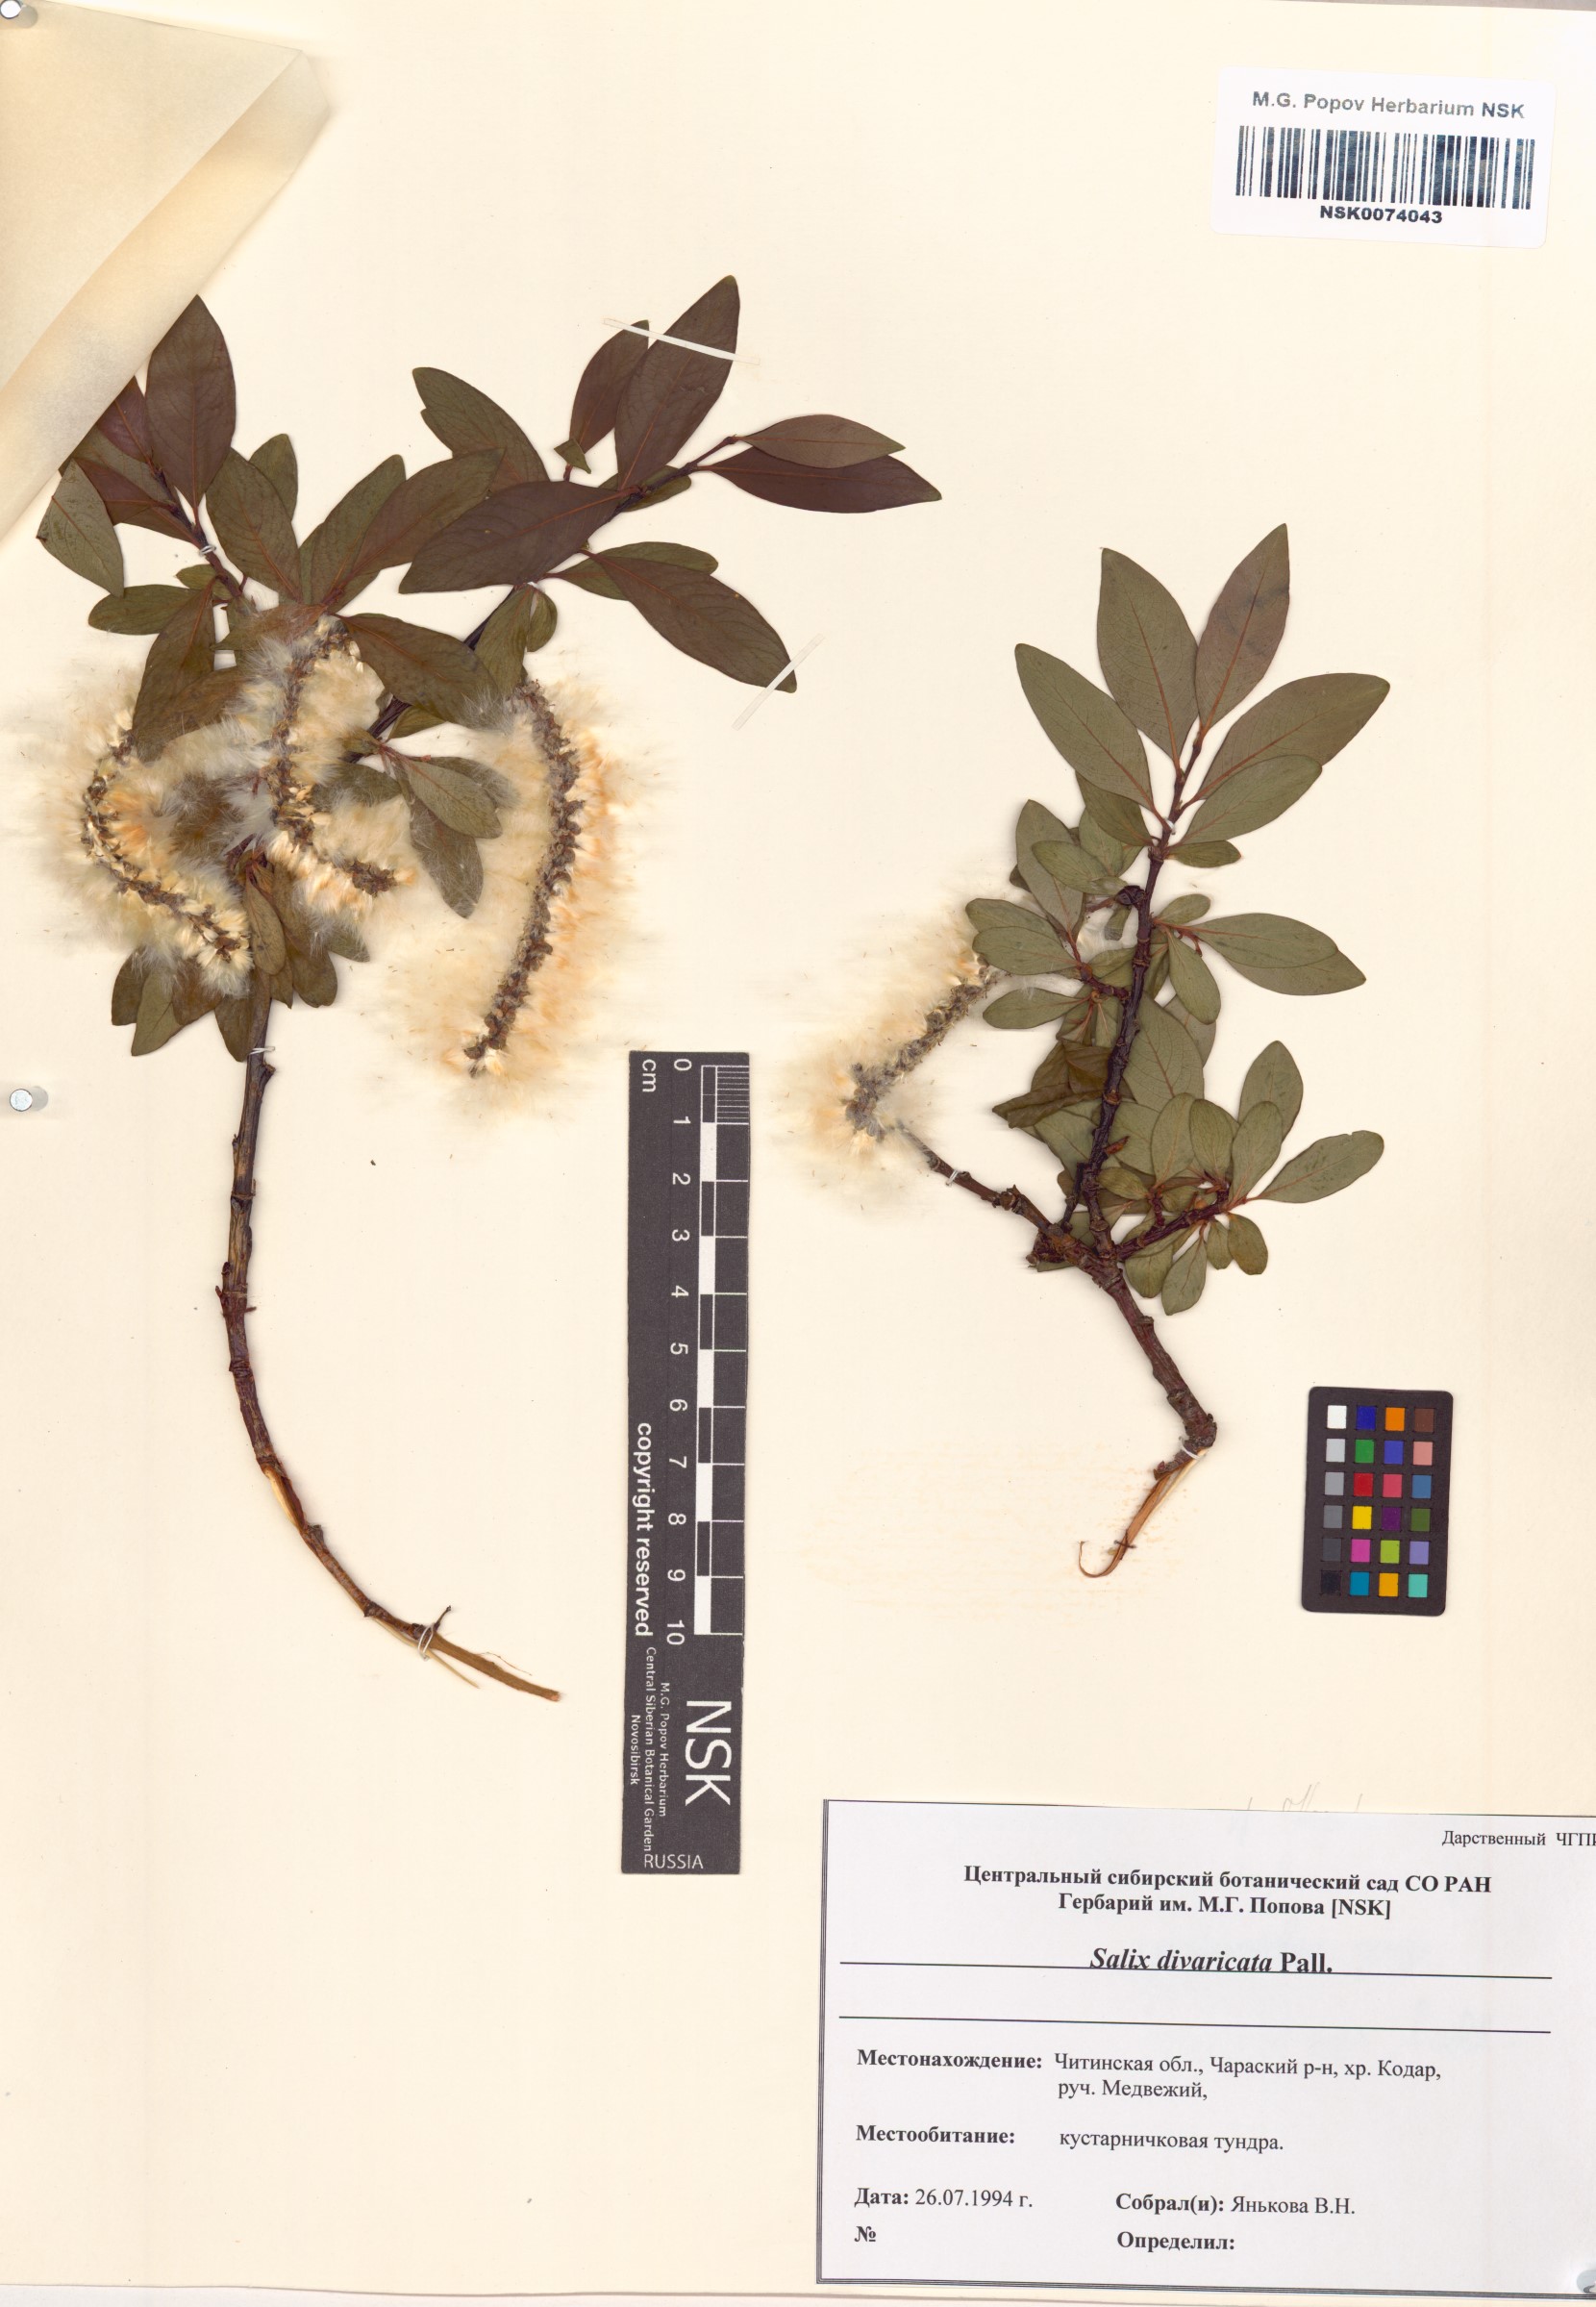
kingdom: Plantae
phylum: Tracheophyta
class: Magnoliopsida
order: Malpighiales
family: Salicaceae
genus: Salix
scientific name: Salix divaricata
